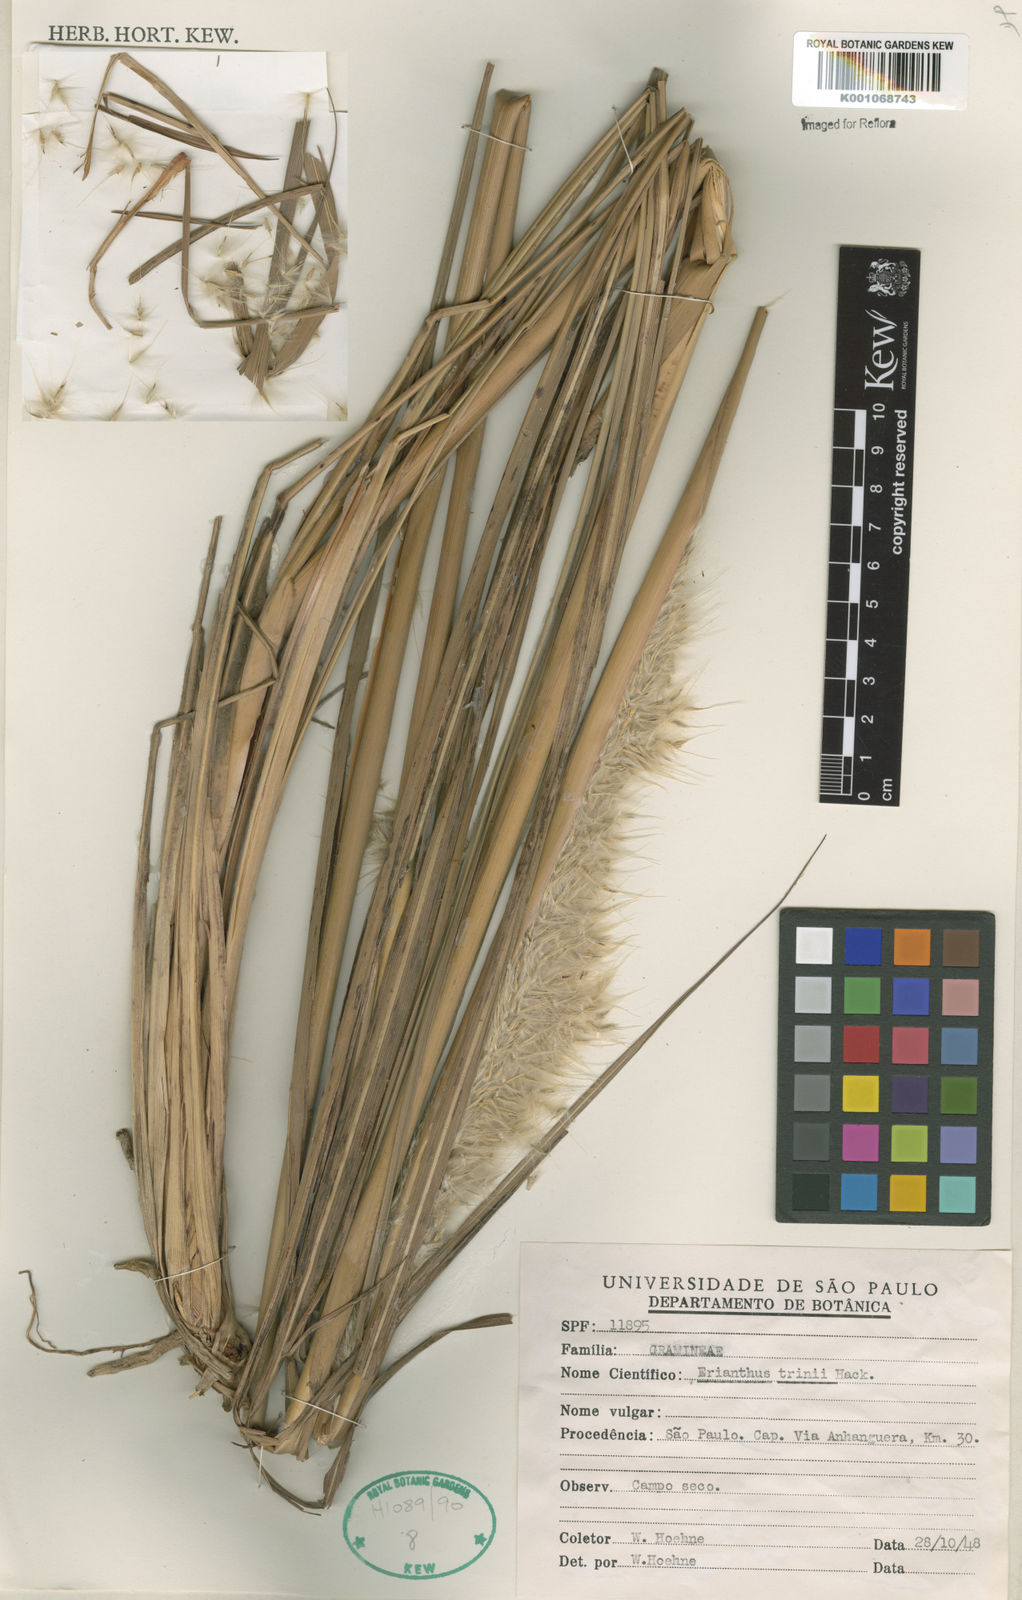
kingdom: Plantae
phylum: Tracheophyta
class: Liliopsida
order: Poales
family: Poaceae
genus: Erianthus
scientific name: Erianthus trinii
